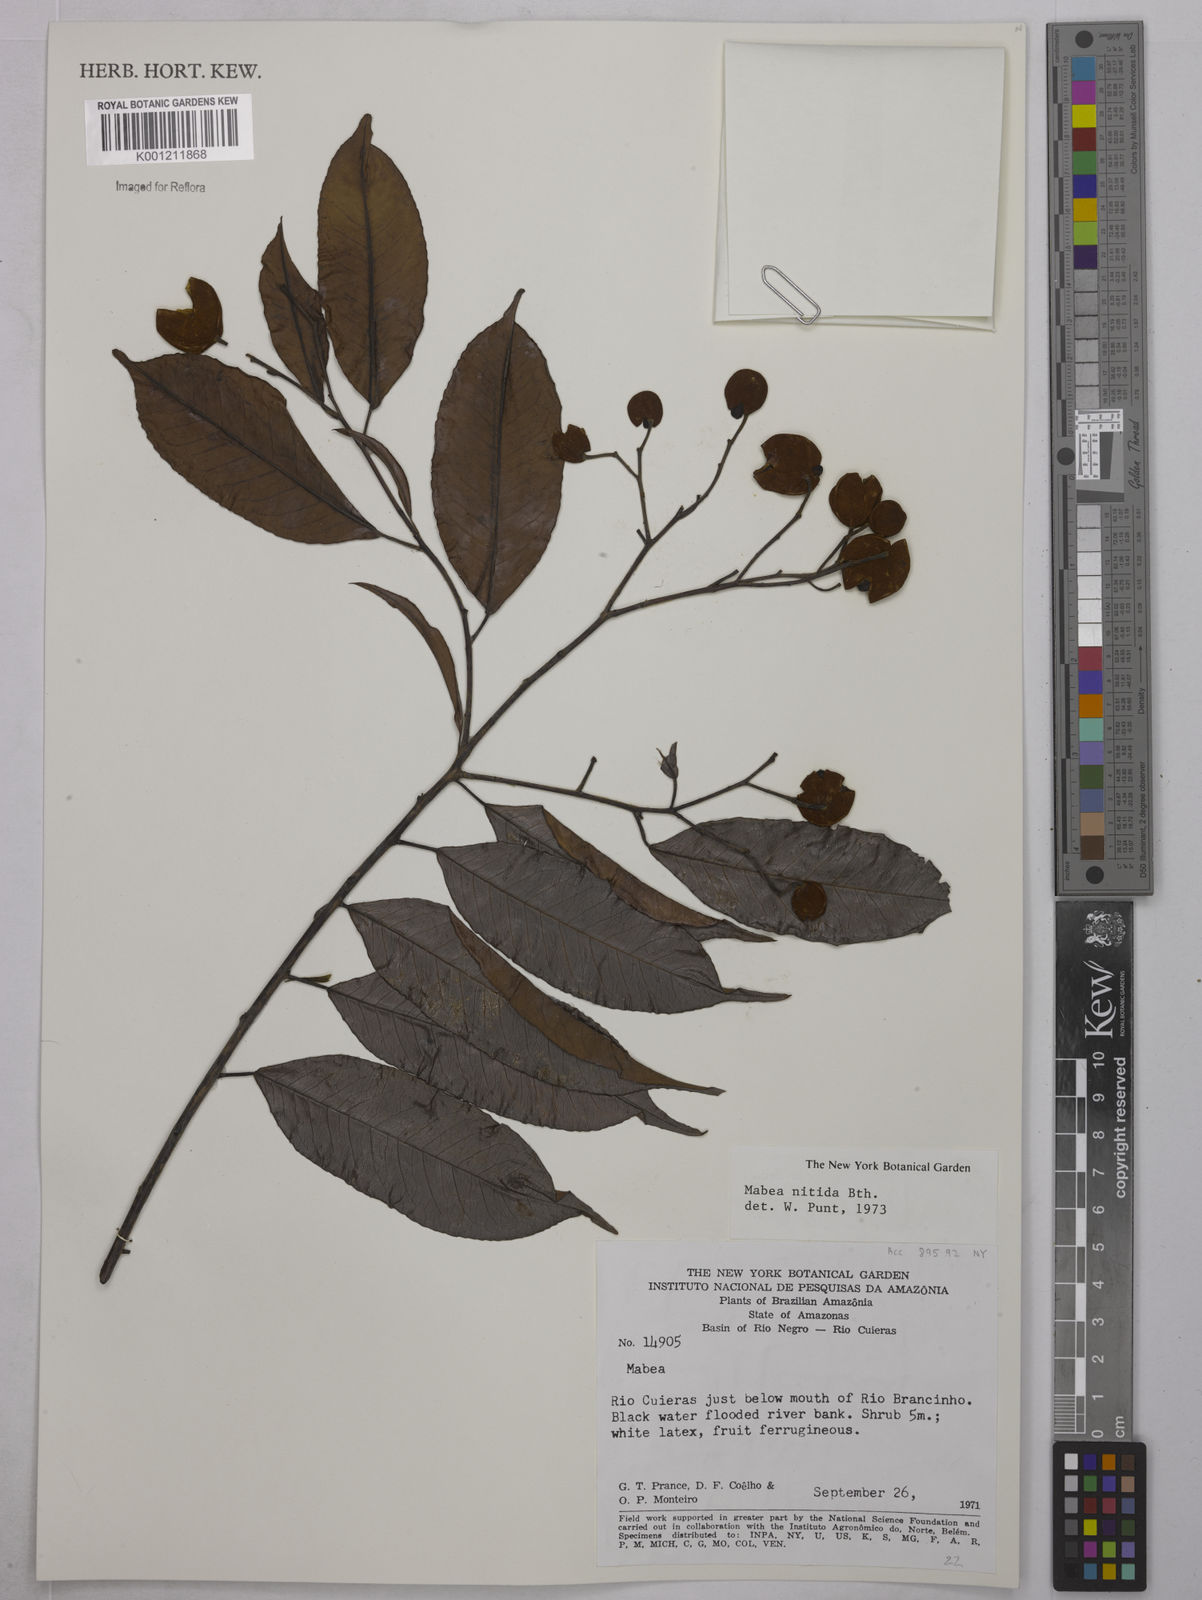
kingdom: Plantae
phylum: Tracheophyta
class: Magnoliopsida
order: Malpighiales
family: Euphorbiaceae
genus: Mabea
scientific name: Mabea nitida
